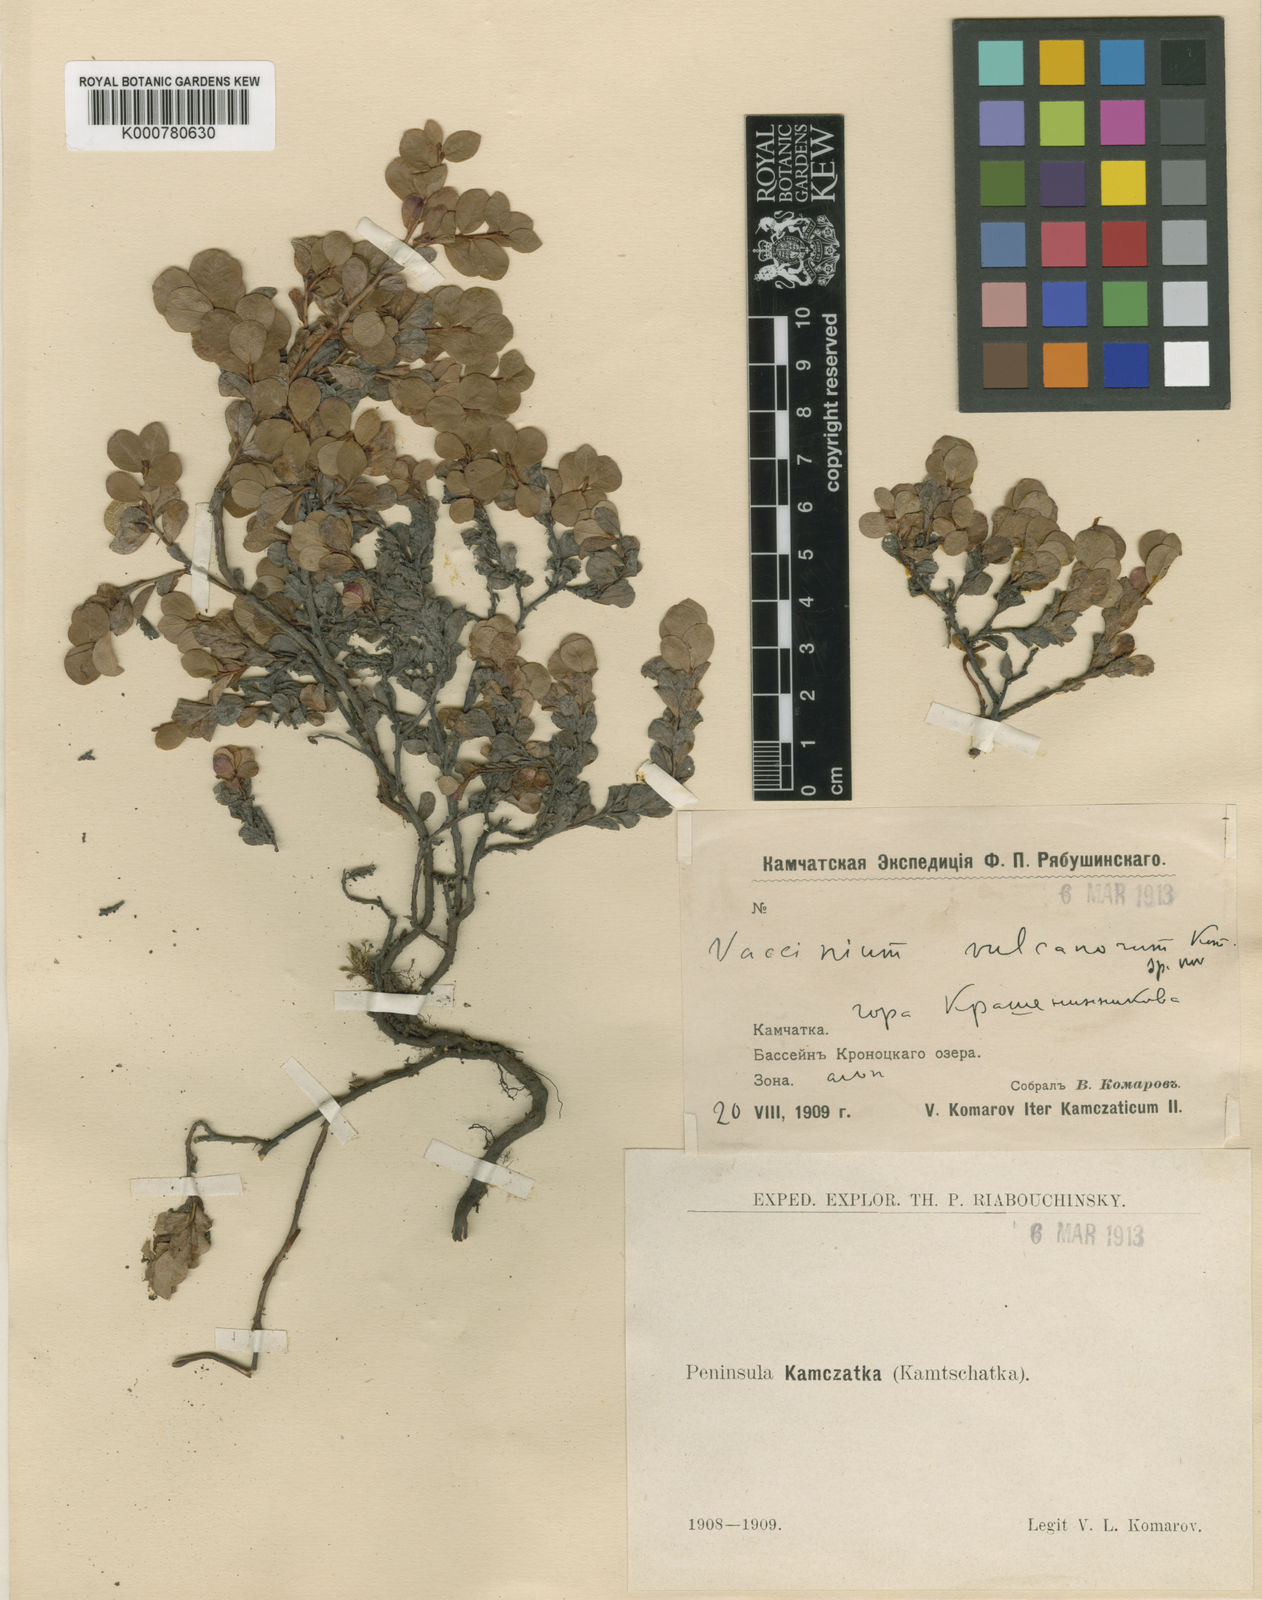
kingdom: Plantae
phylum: Tracheophyta
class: Magnoliopsida
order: Ericales
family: Ericaceae
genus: Vaccinium
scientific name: Vaccinium uliginosum
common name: Bog bilberry
